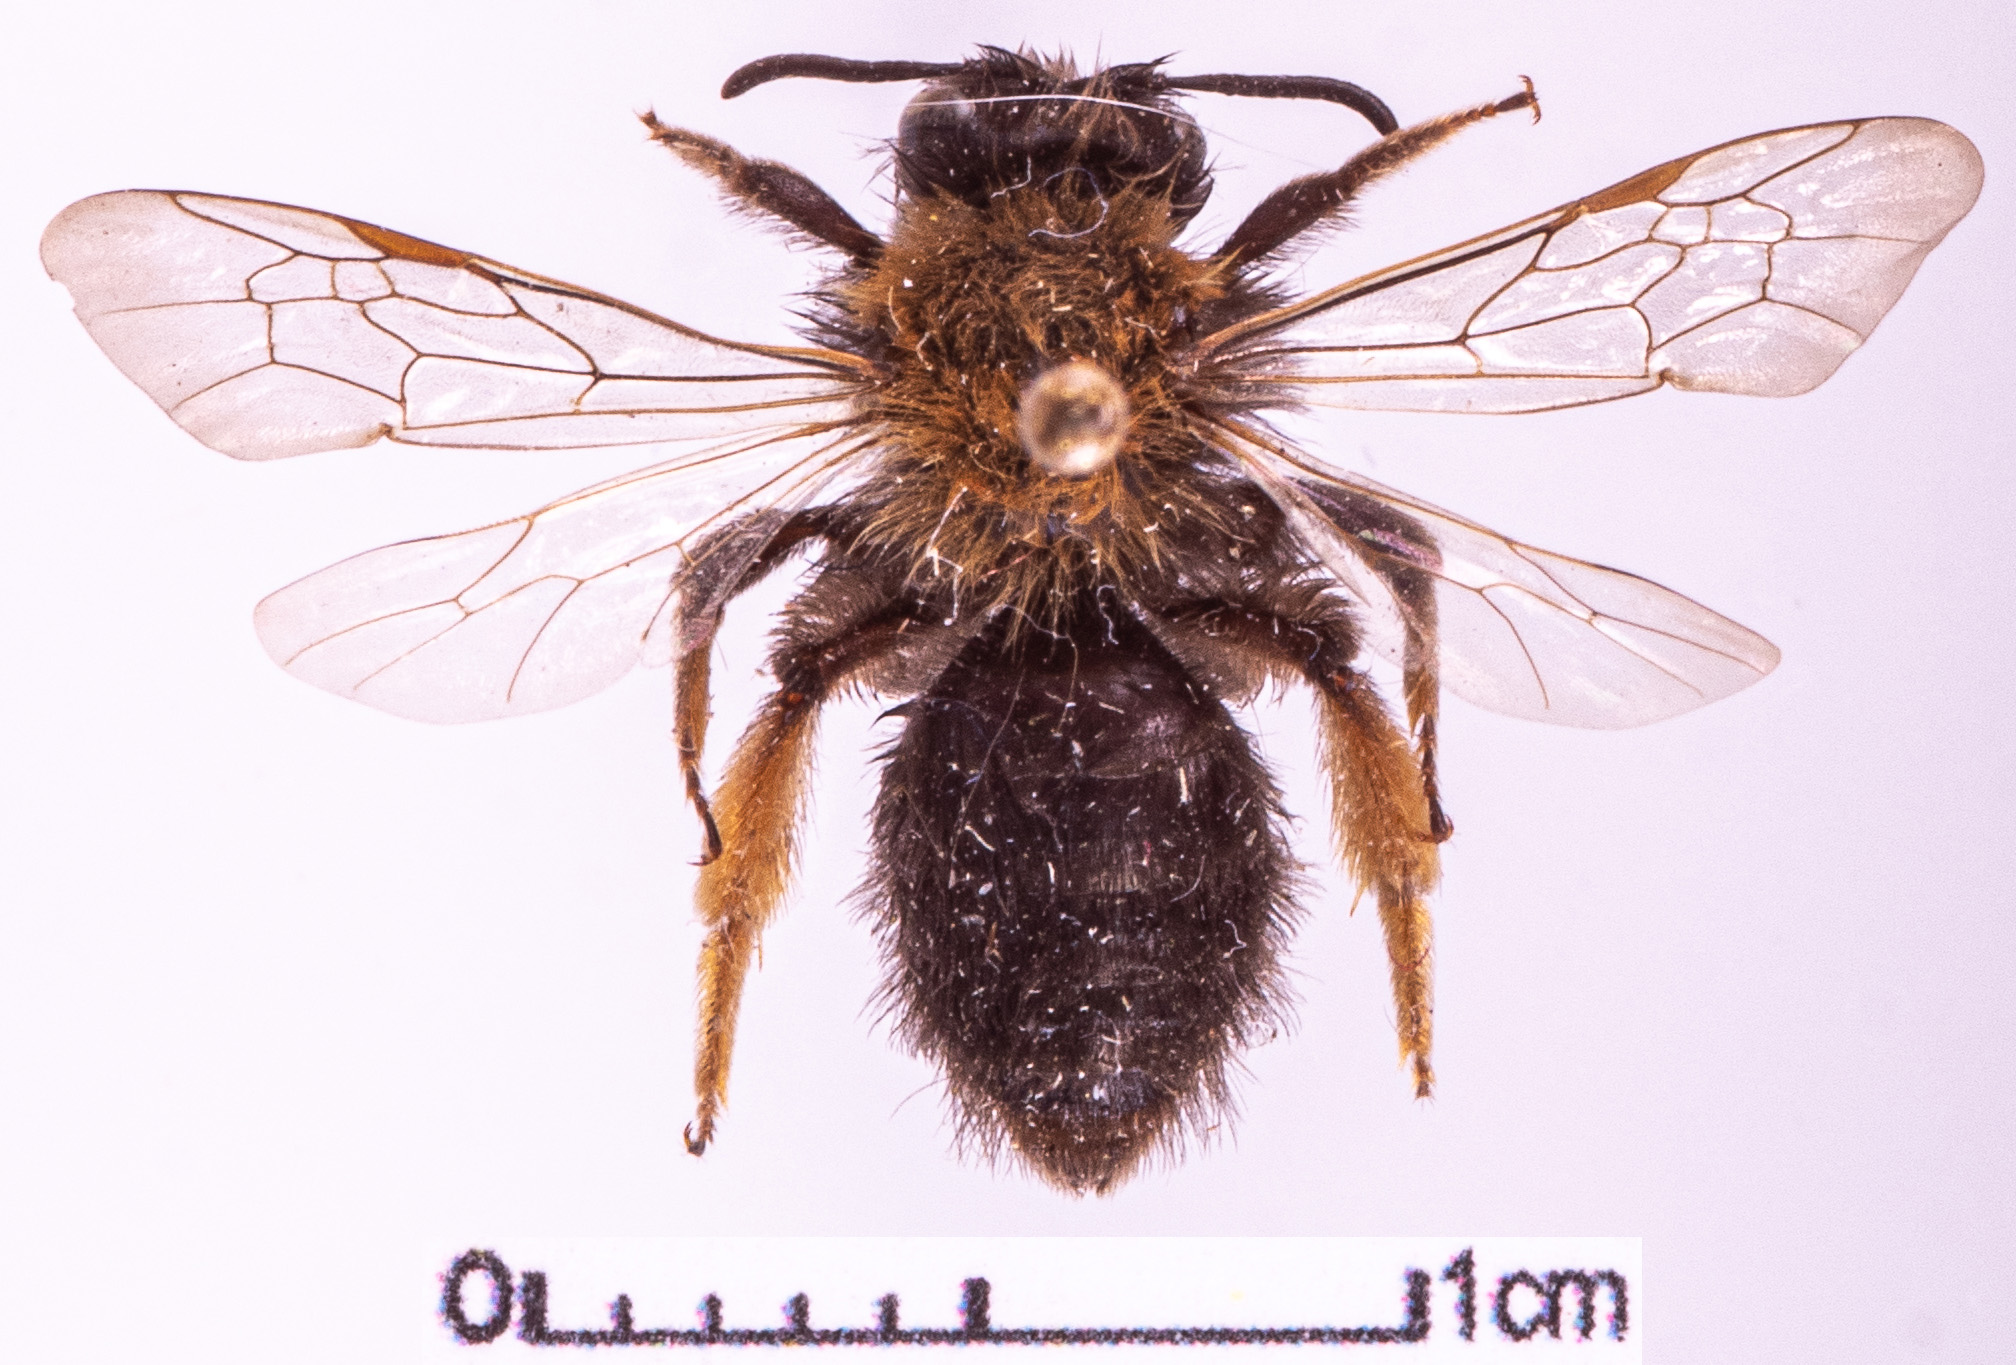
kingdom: Animalia
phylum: Arthropoda
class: Insecta
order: Hymenoptera
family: Andrenidae
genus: Andrena
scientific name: Andrena clarkella
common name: Clarke's mining bee
